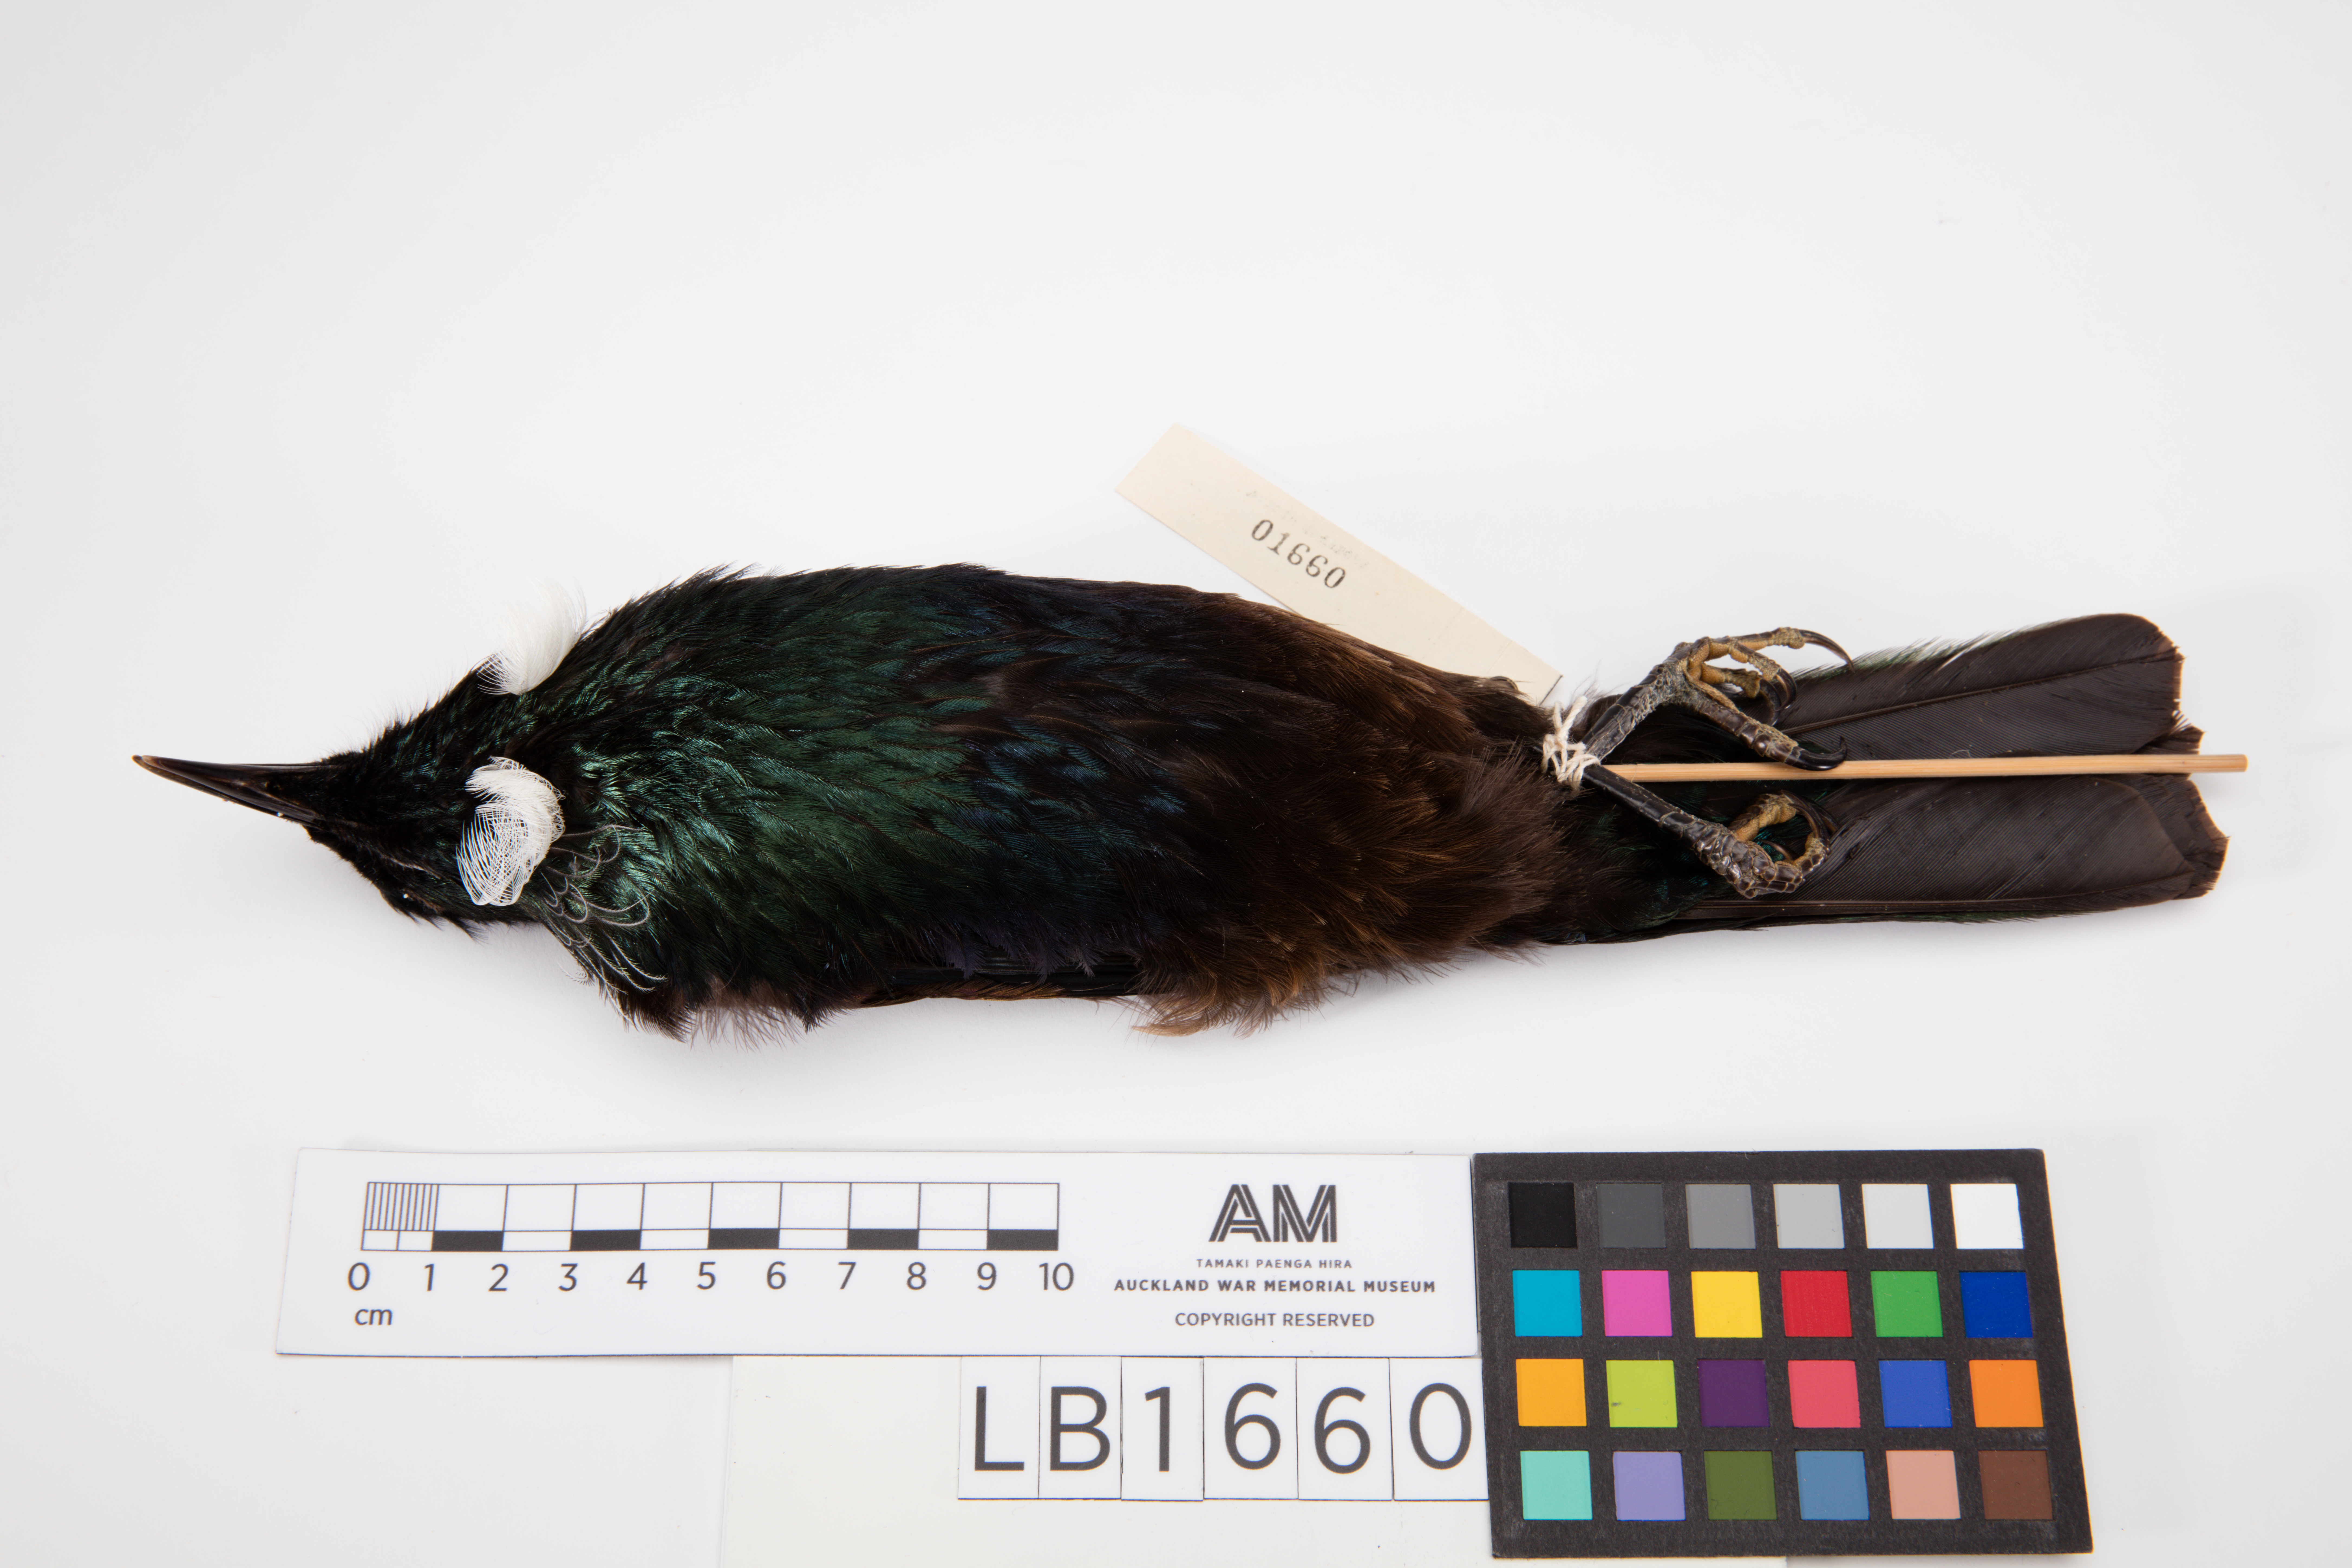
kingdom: Animalia
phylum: Chordata
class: Aves
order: Passeriformes
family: Meliphagidae
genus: Prosthemadera
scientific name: Prosthemadera novaeseelandiae
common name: Tui
